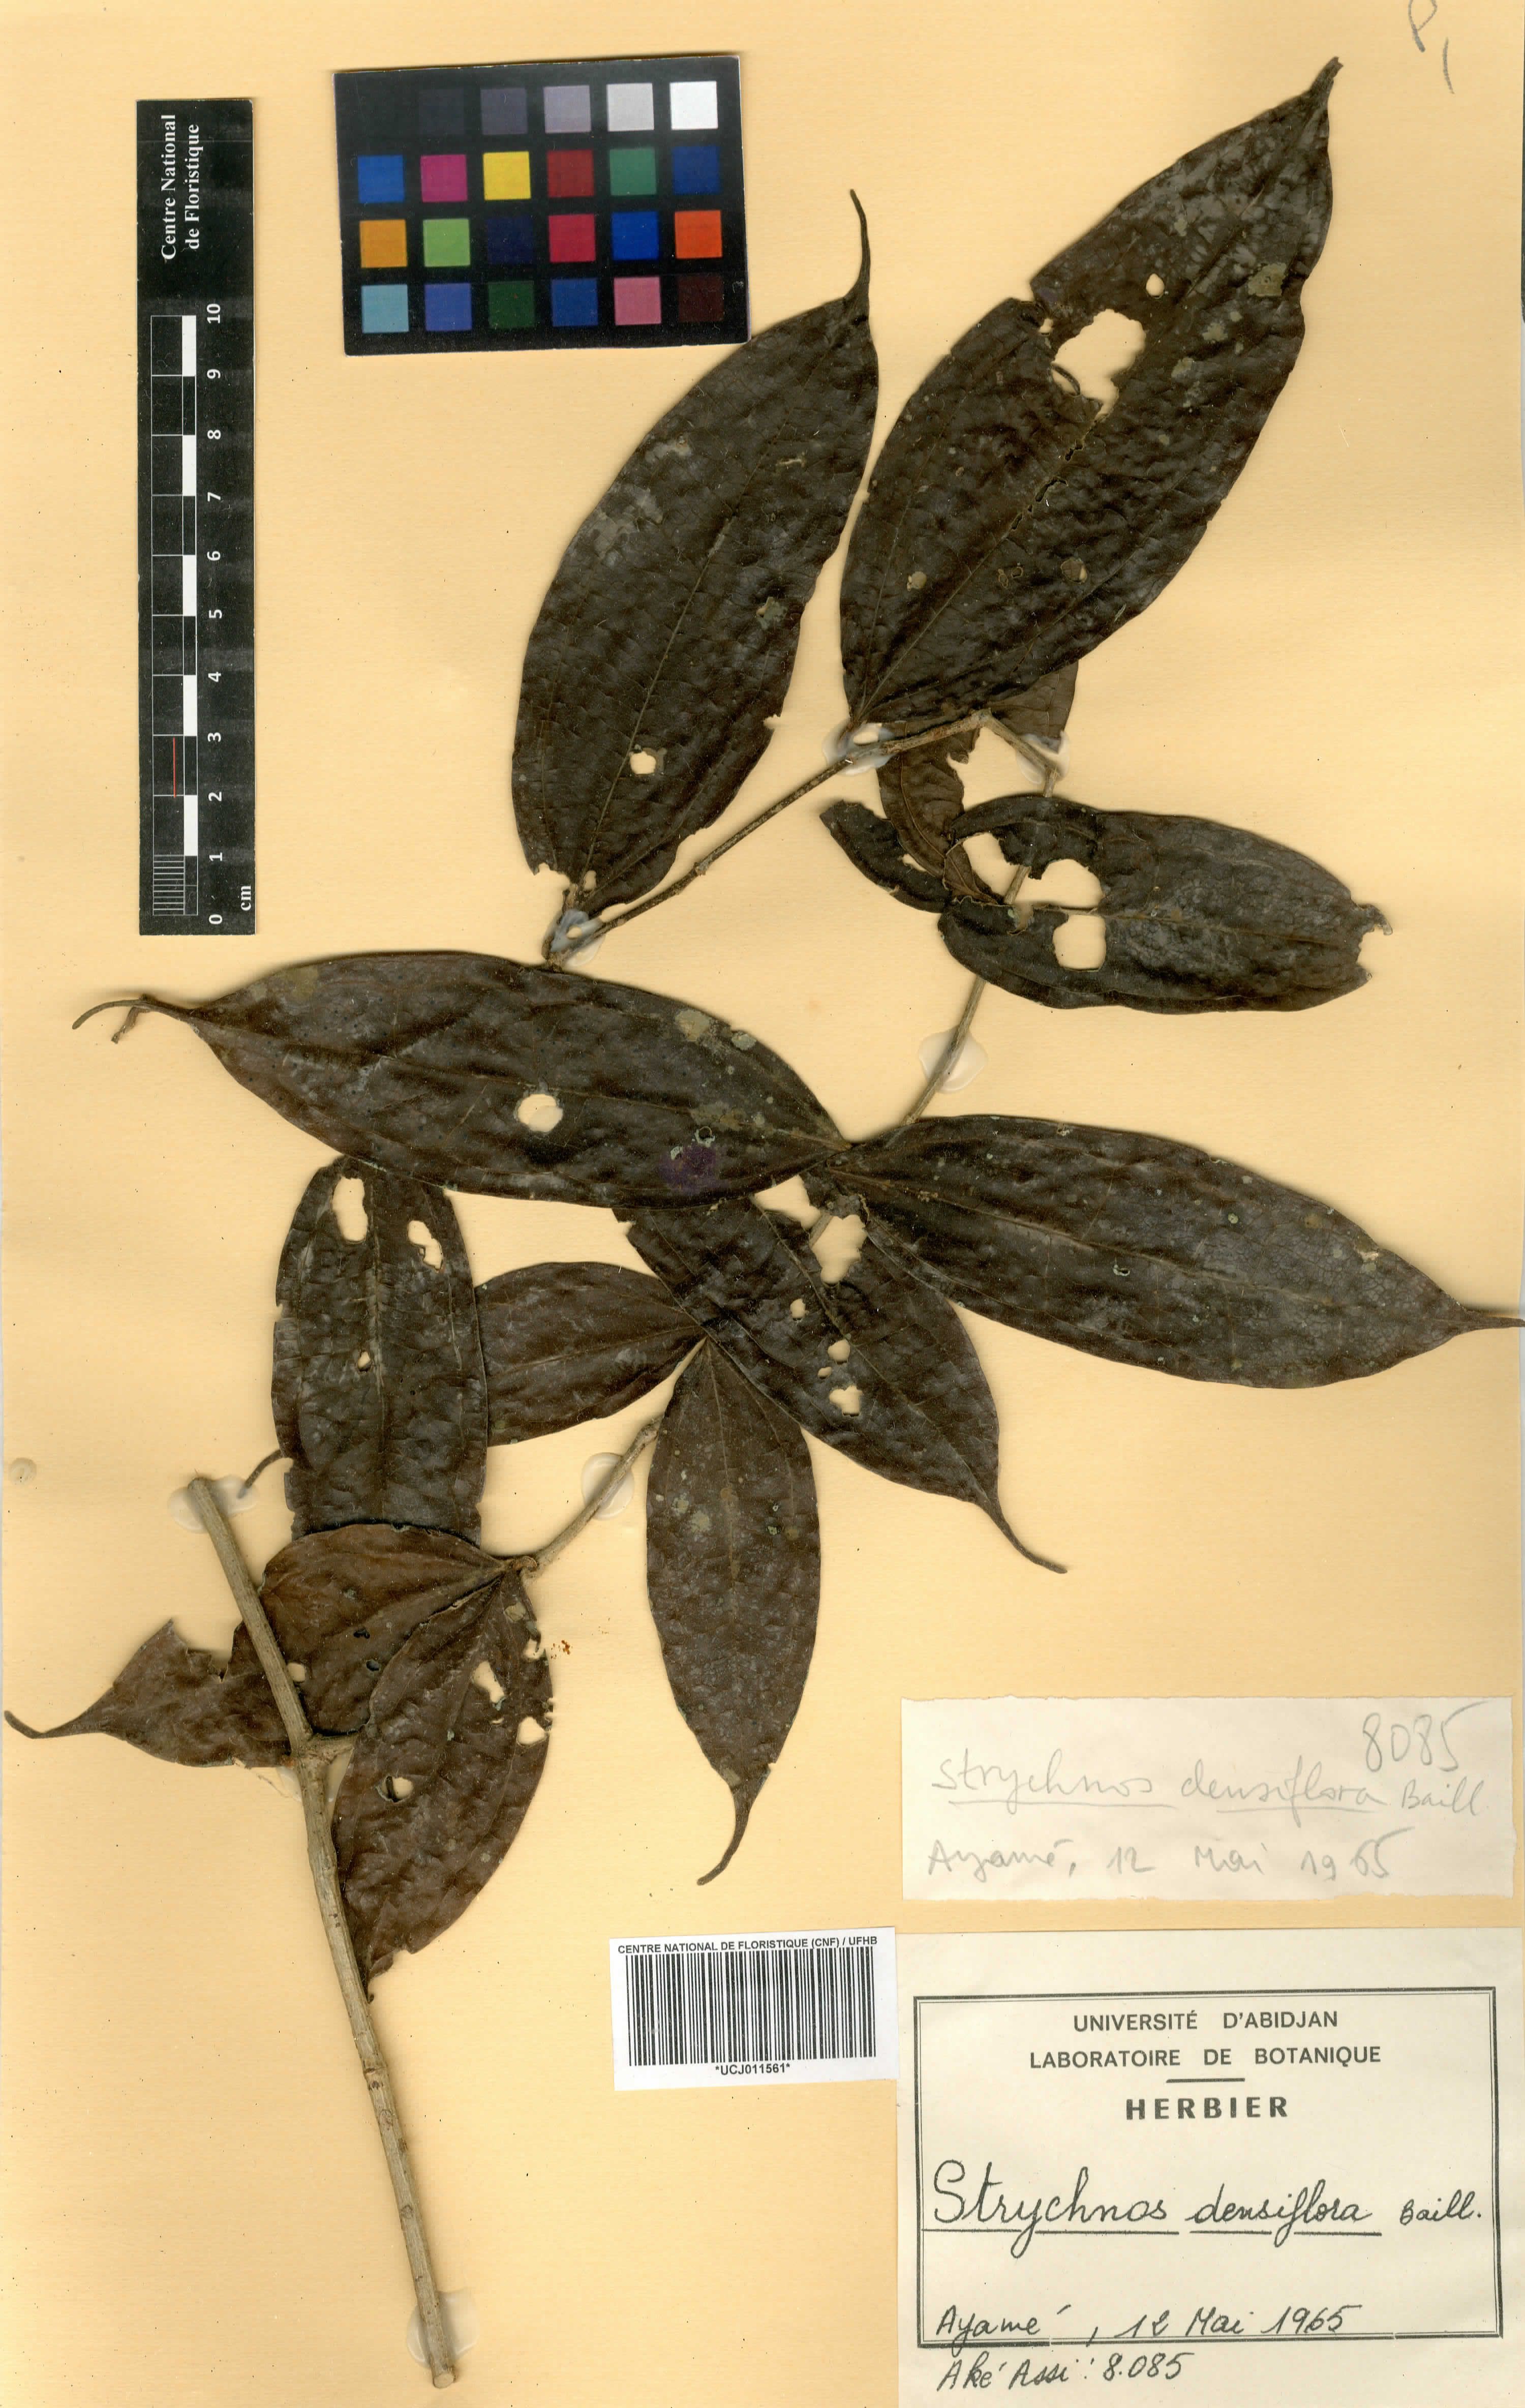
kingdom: Plantae
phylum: Tracheophyta
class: Magnoliopsida
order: Gentianales
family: Loganiaceae
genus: Strychnos
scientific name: Strychnos densiflora
